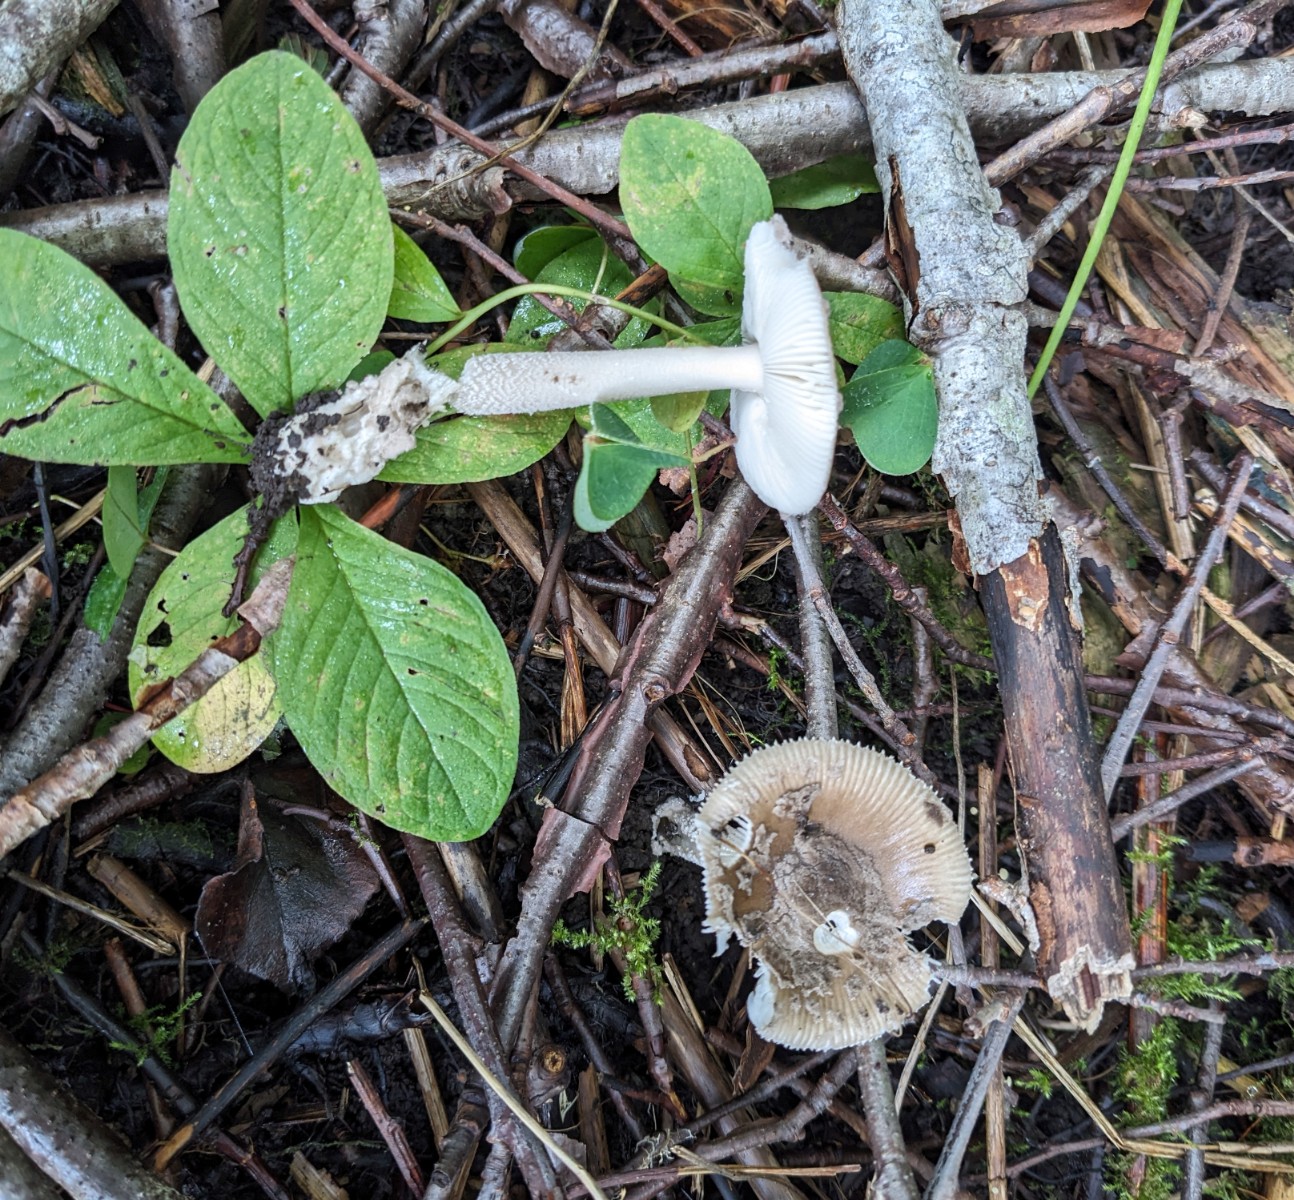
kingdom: Fungi
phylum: Basidiomycota
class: Agaricomycetes
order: Agaricales
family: Amanitaceae
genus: Amanita
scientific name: Amanita friabilis
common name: grynet kam-fluesvamp
